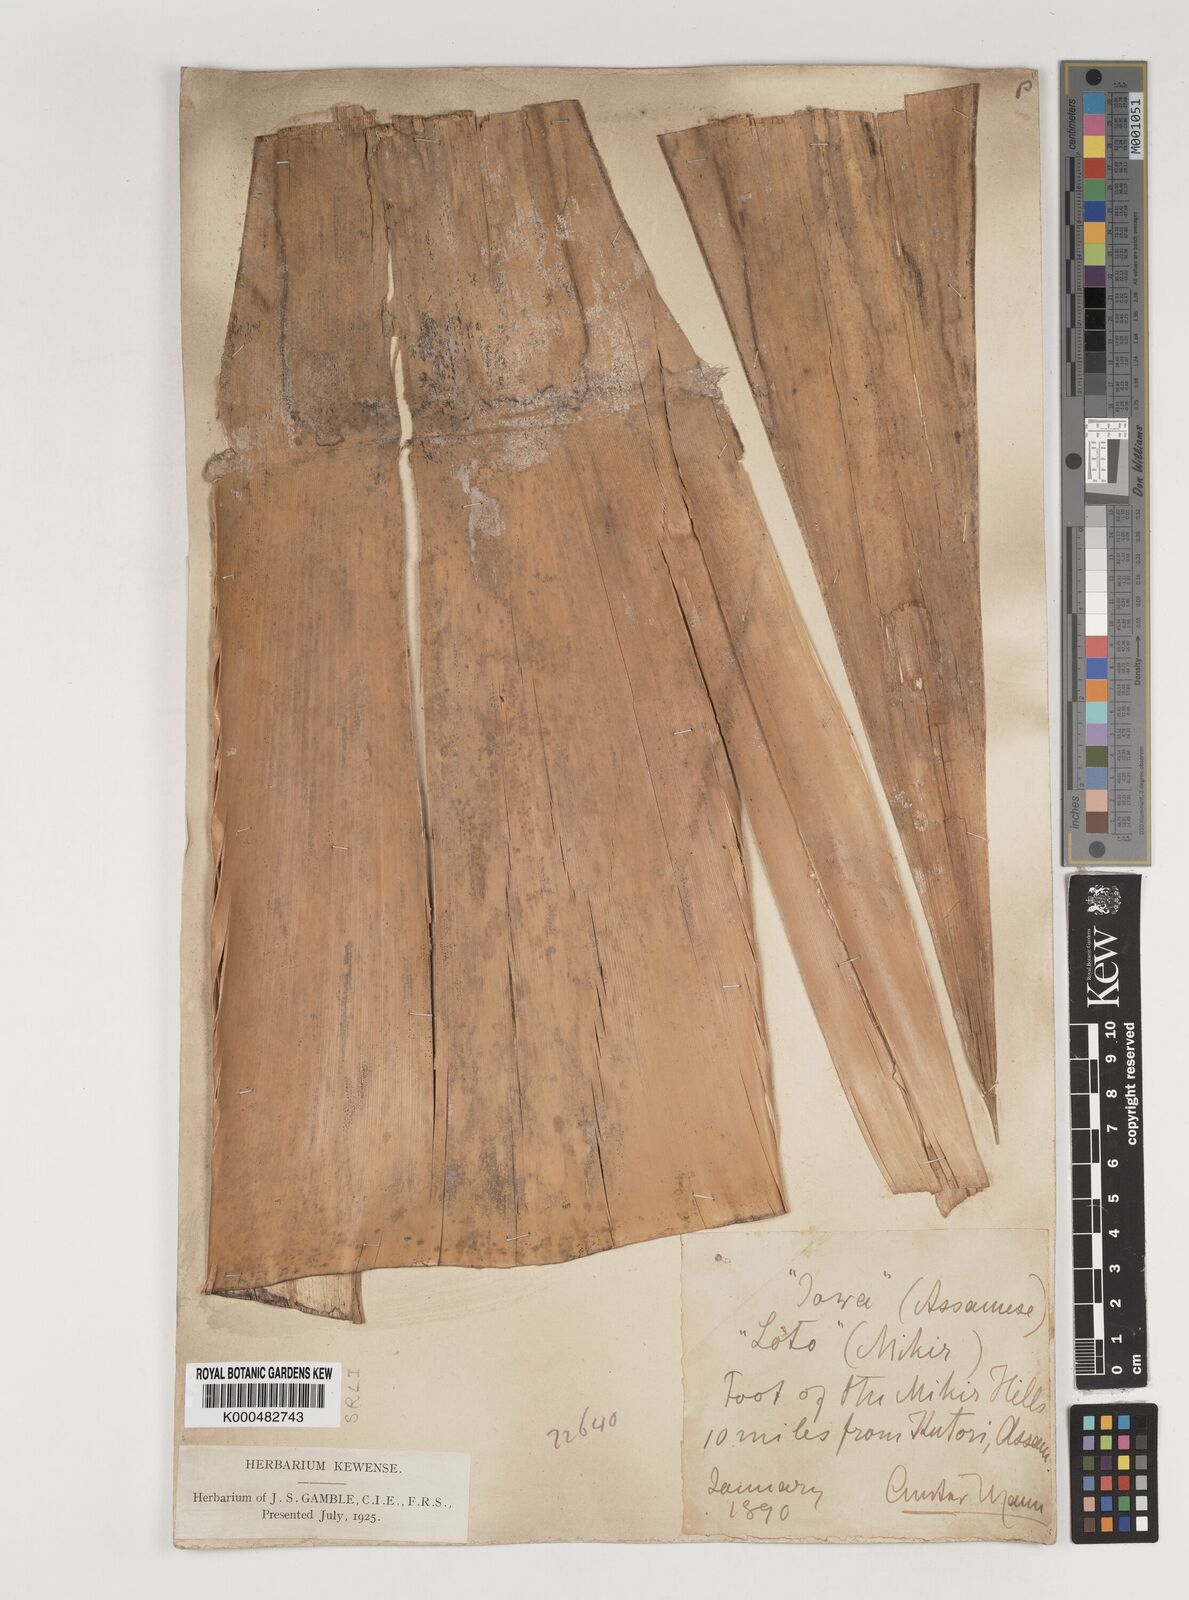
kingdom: Plantae
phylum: Tracheophyta
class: Liliopsida
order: Poales
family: Poaceae
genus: Bambusa
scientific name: Bambusa pallida
